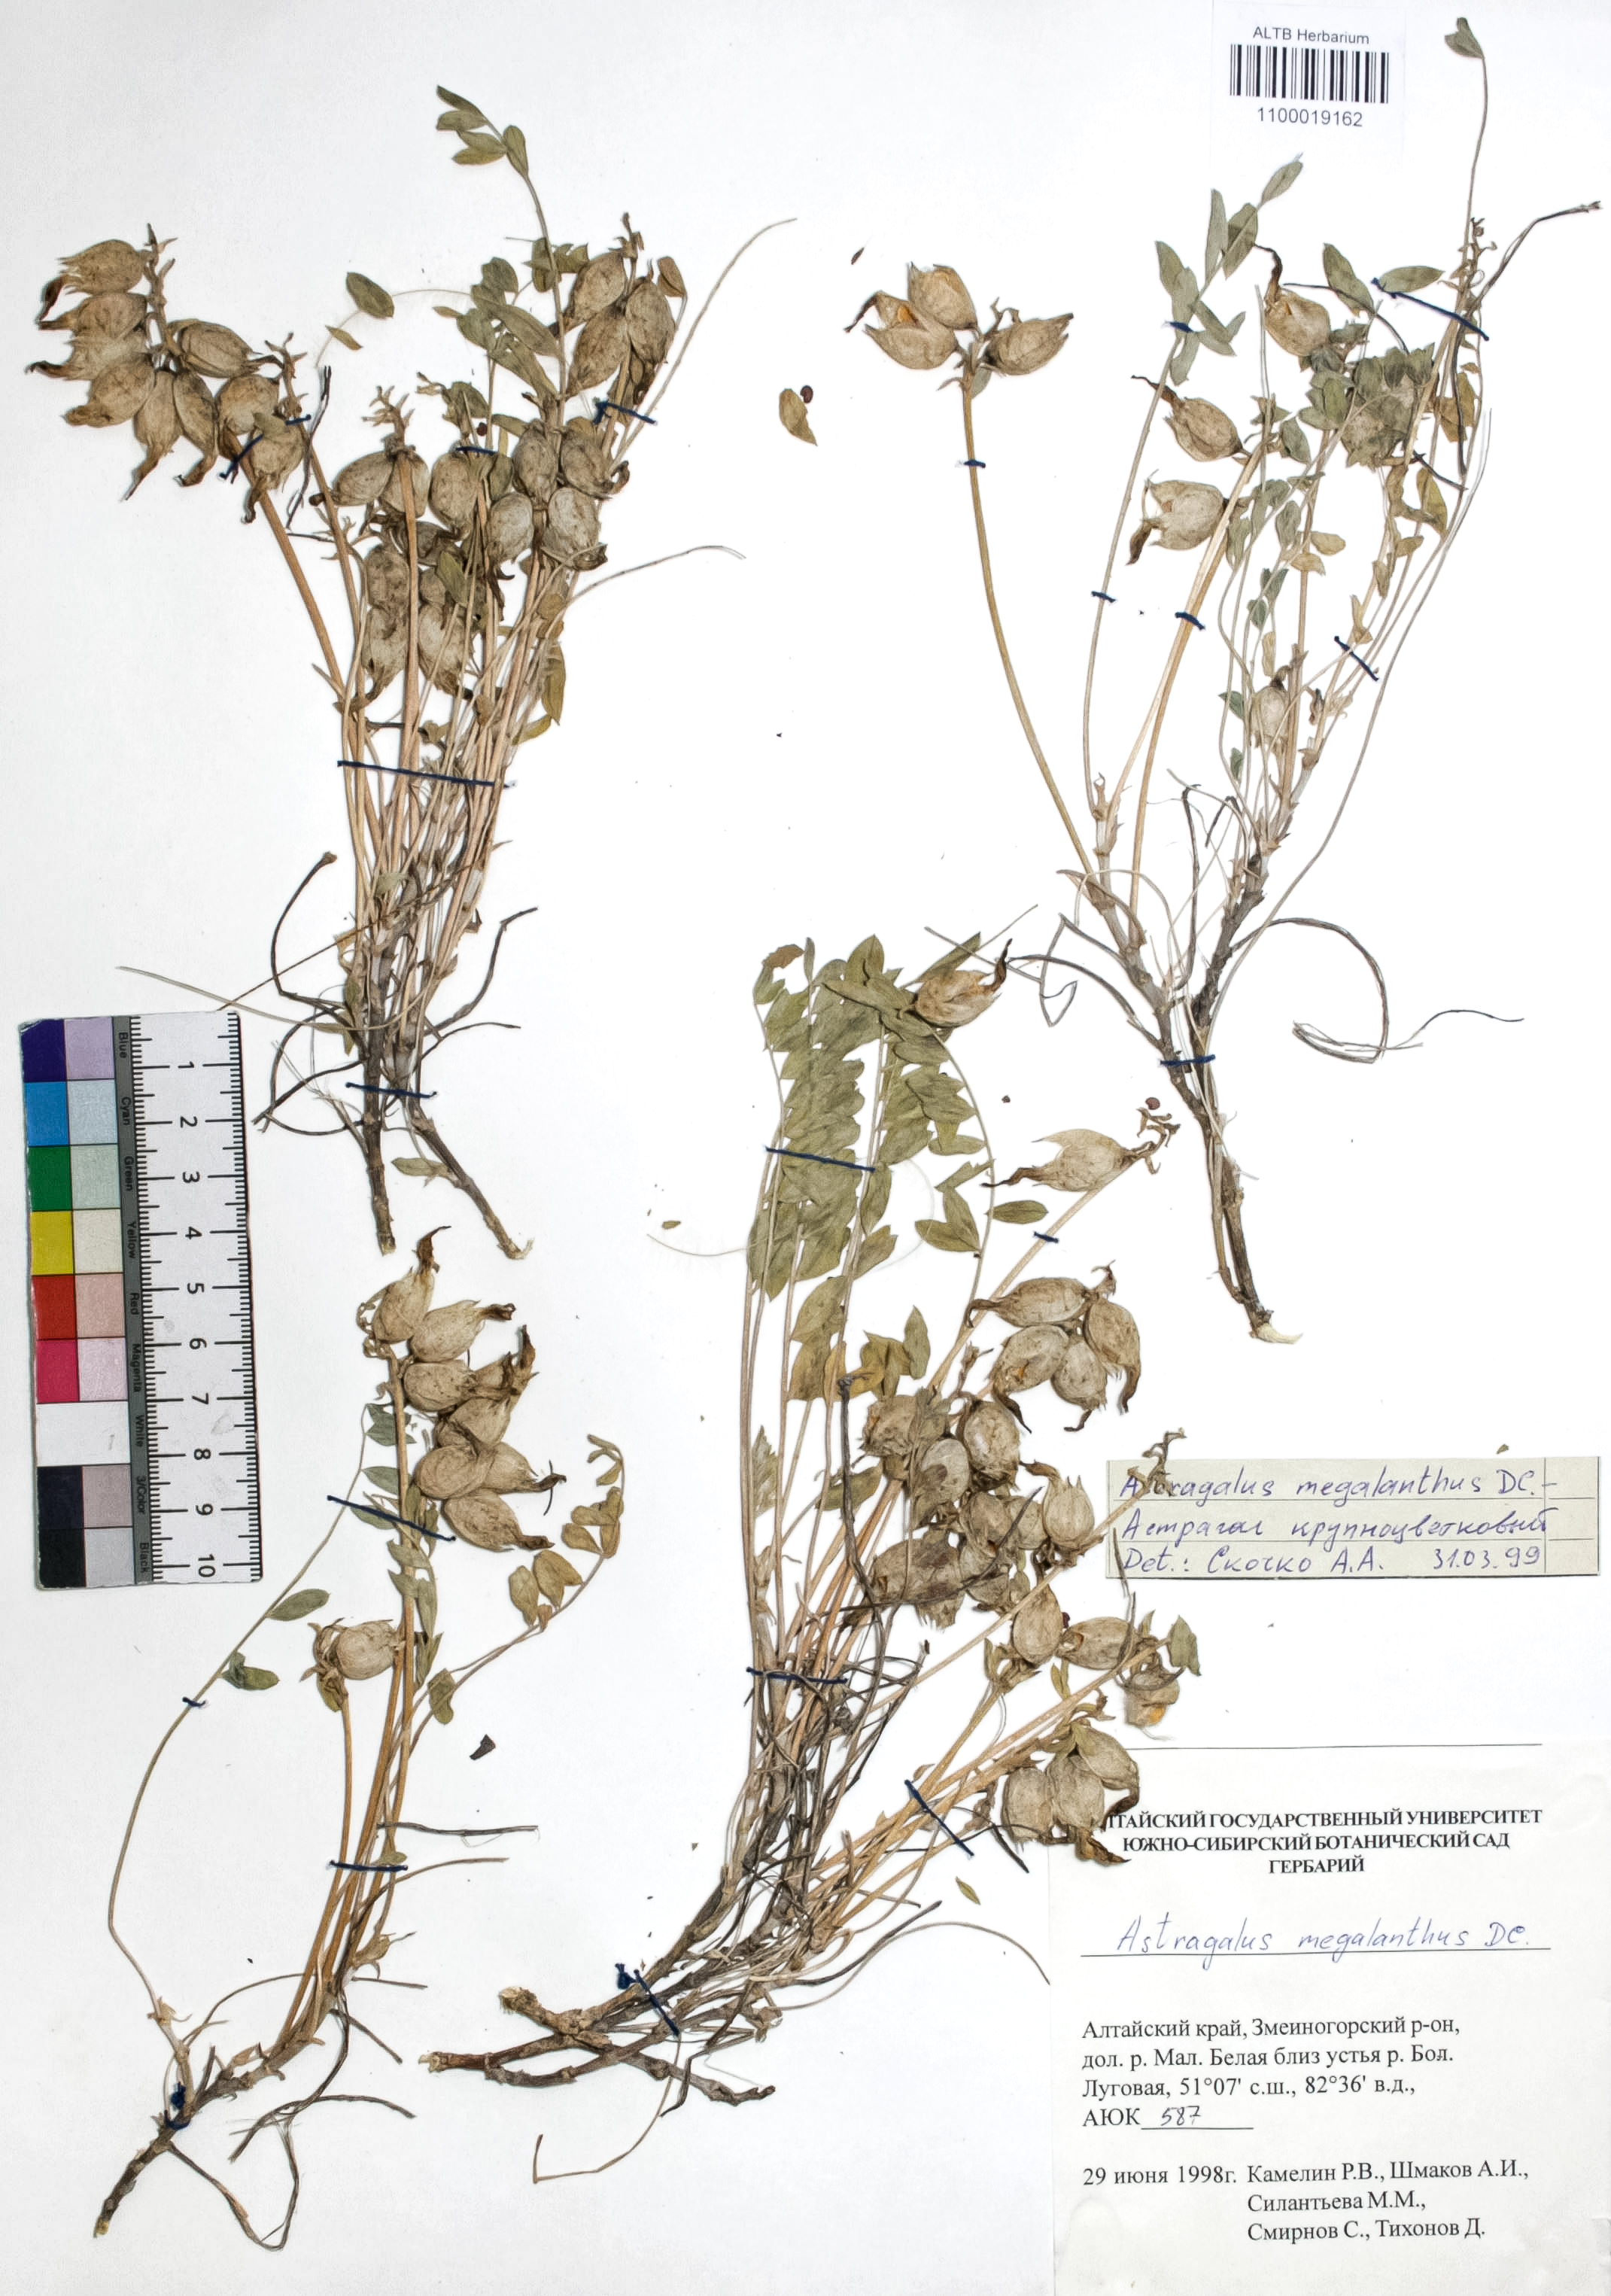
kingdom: Plantae
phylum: Tracheophyta
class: Magnoliopsida
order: Fabales
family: Fabaceae
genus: Astragalus
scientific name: Astragalus leptostachys
